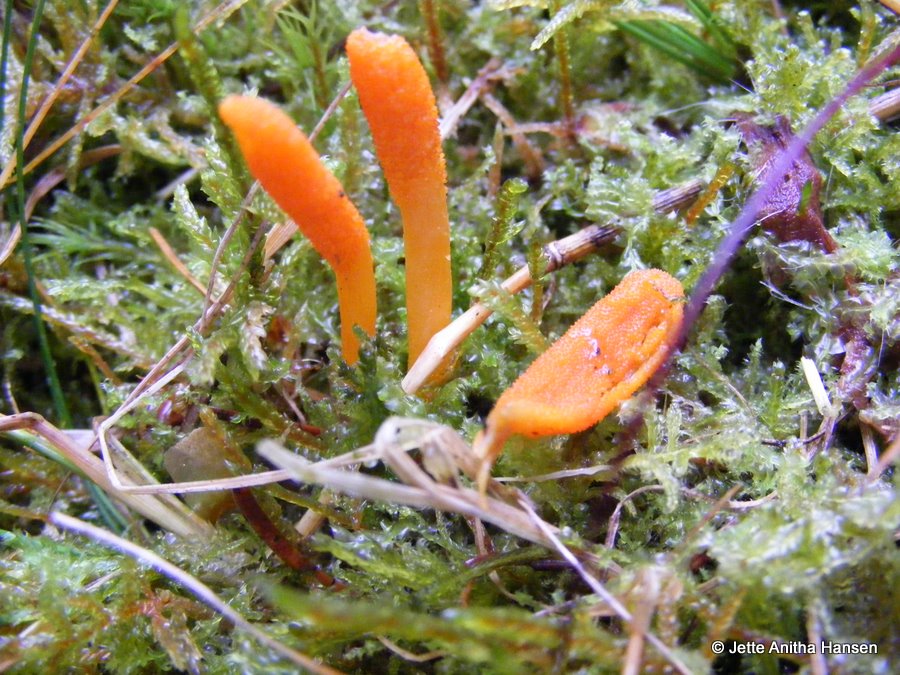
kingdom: Fungi
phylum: Ascomycota
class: Sordariomycetes
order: Hypocreales
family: Cordycipitaceae
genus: Cordyceps
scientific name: Cordyceps militaris
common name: puppe-snyltekølle
